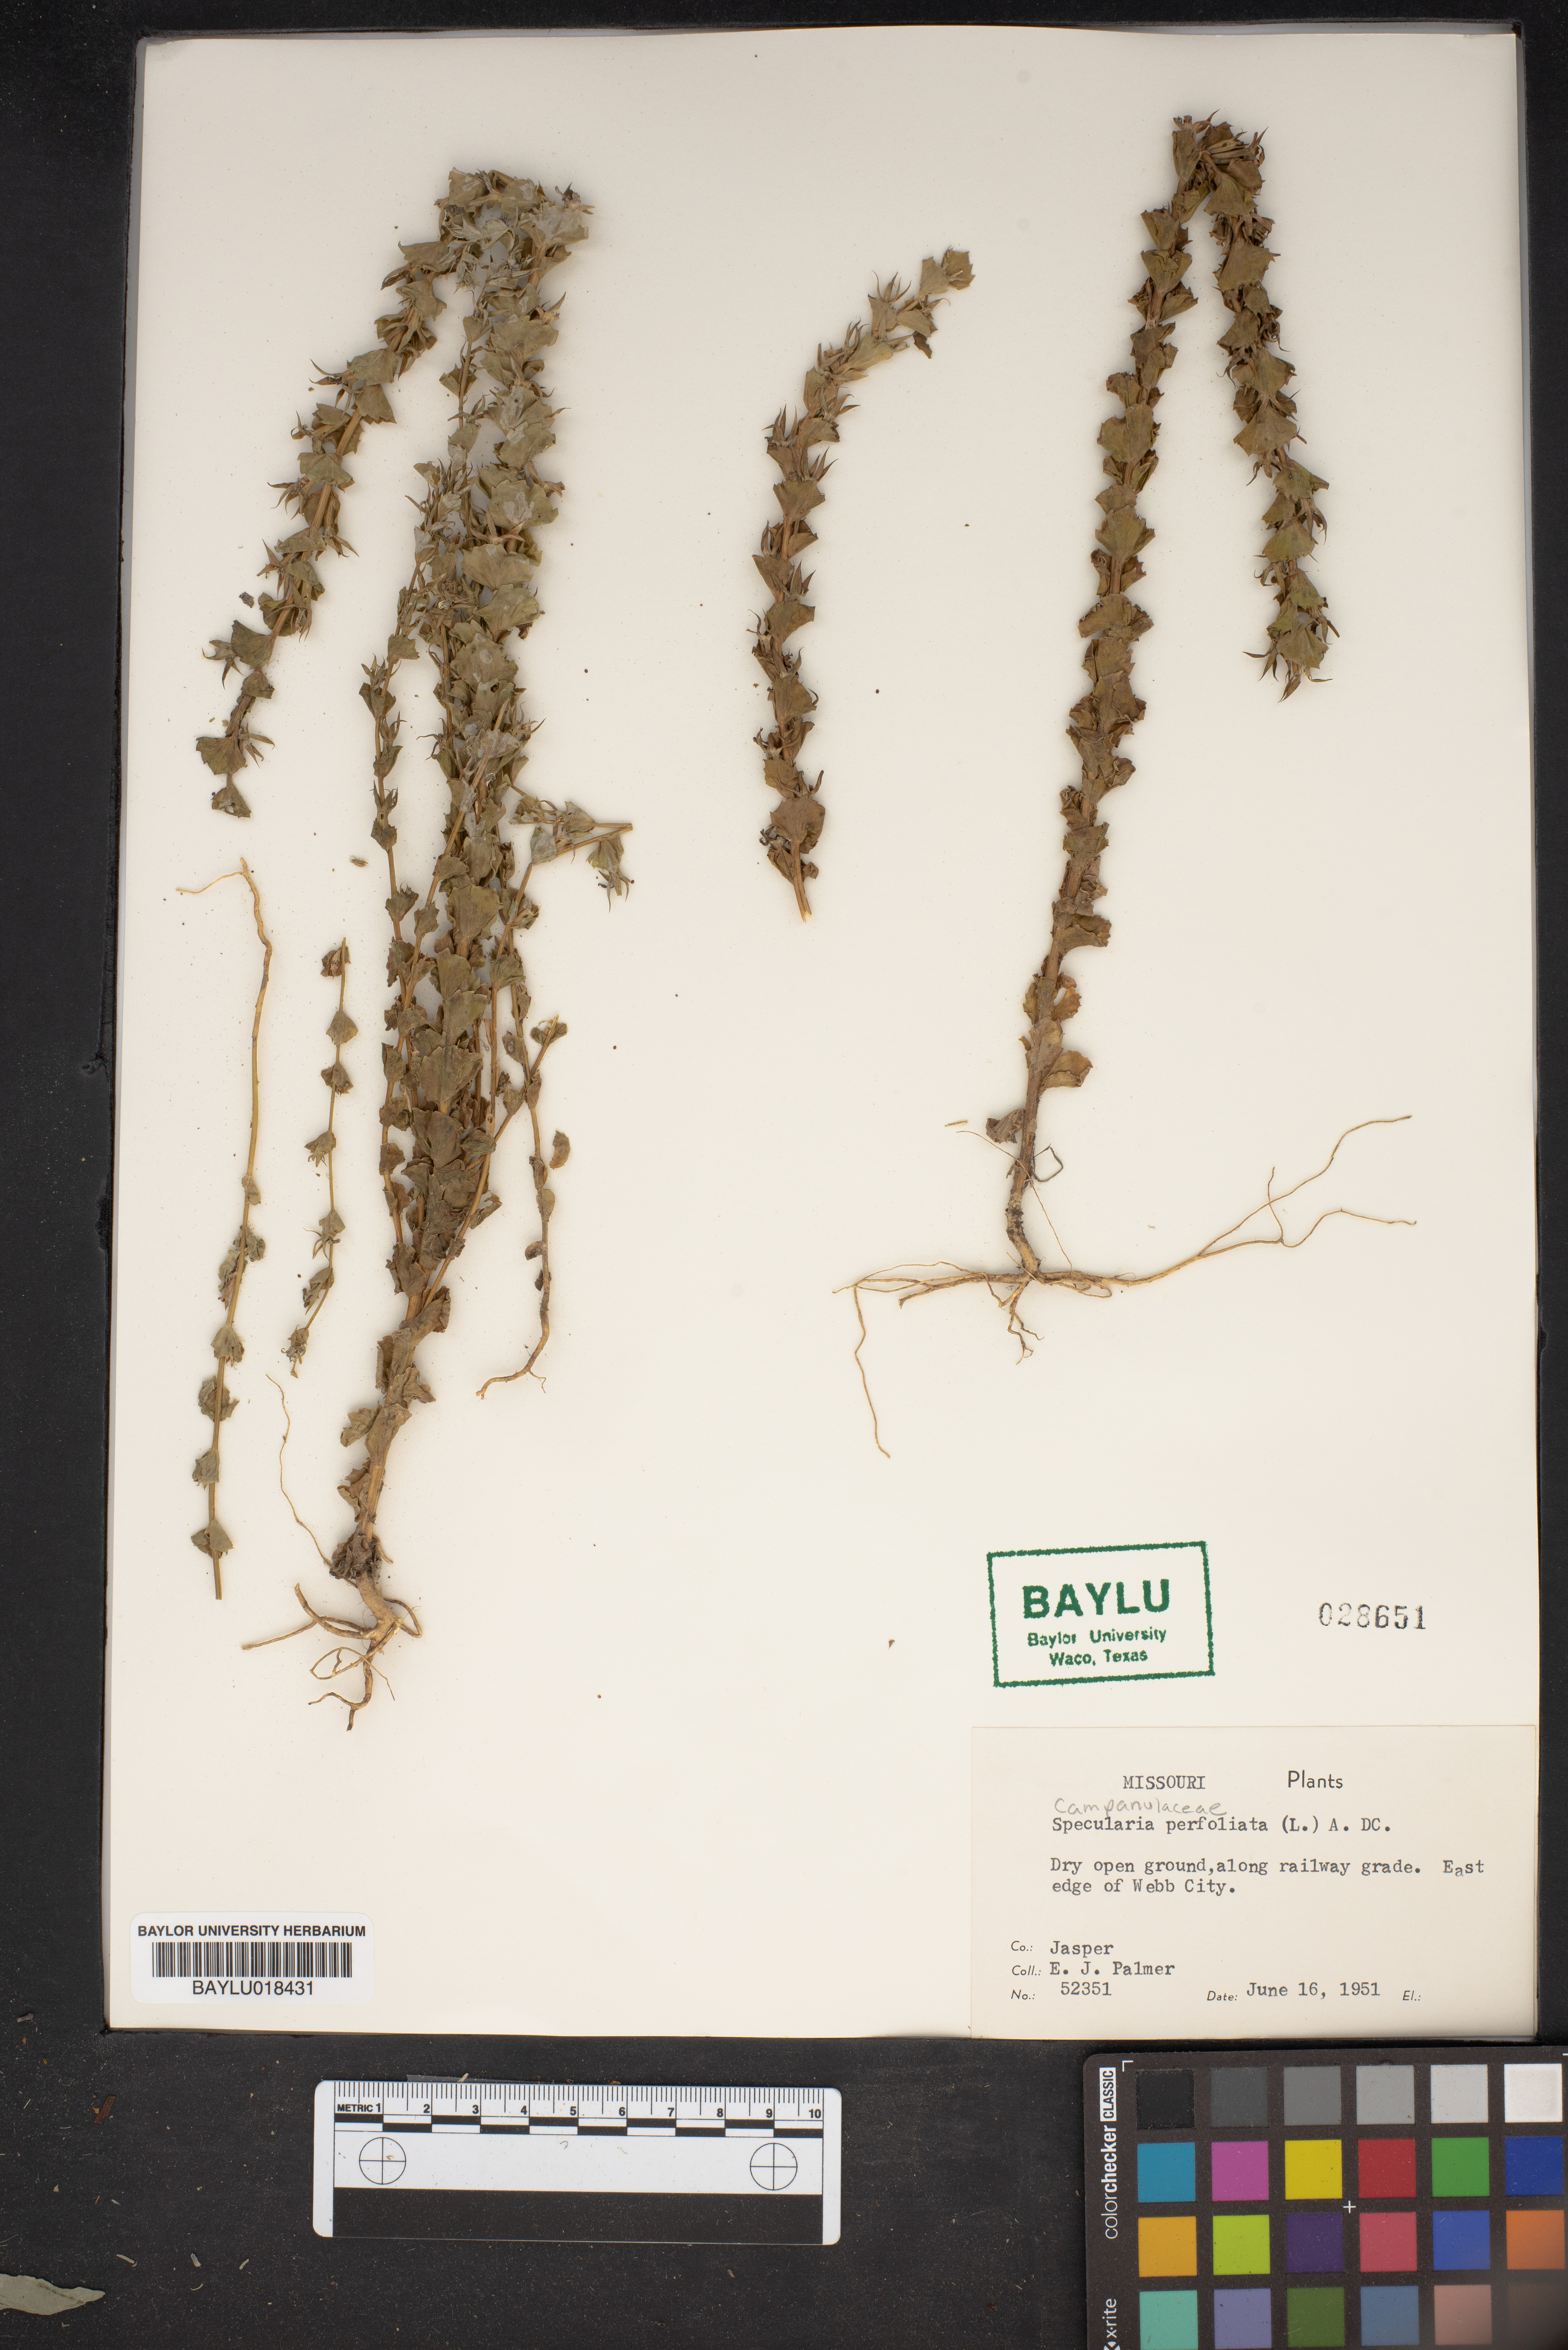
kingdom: Plantae
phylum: Tracheophyta
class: Magnoliopsida
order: Asterales
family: Campanulaceae
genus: Triodanis
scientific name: Triodanis perfoliata
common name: Clasping venus' looking-glass
